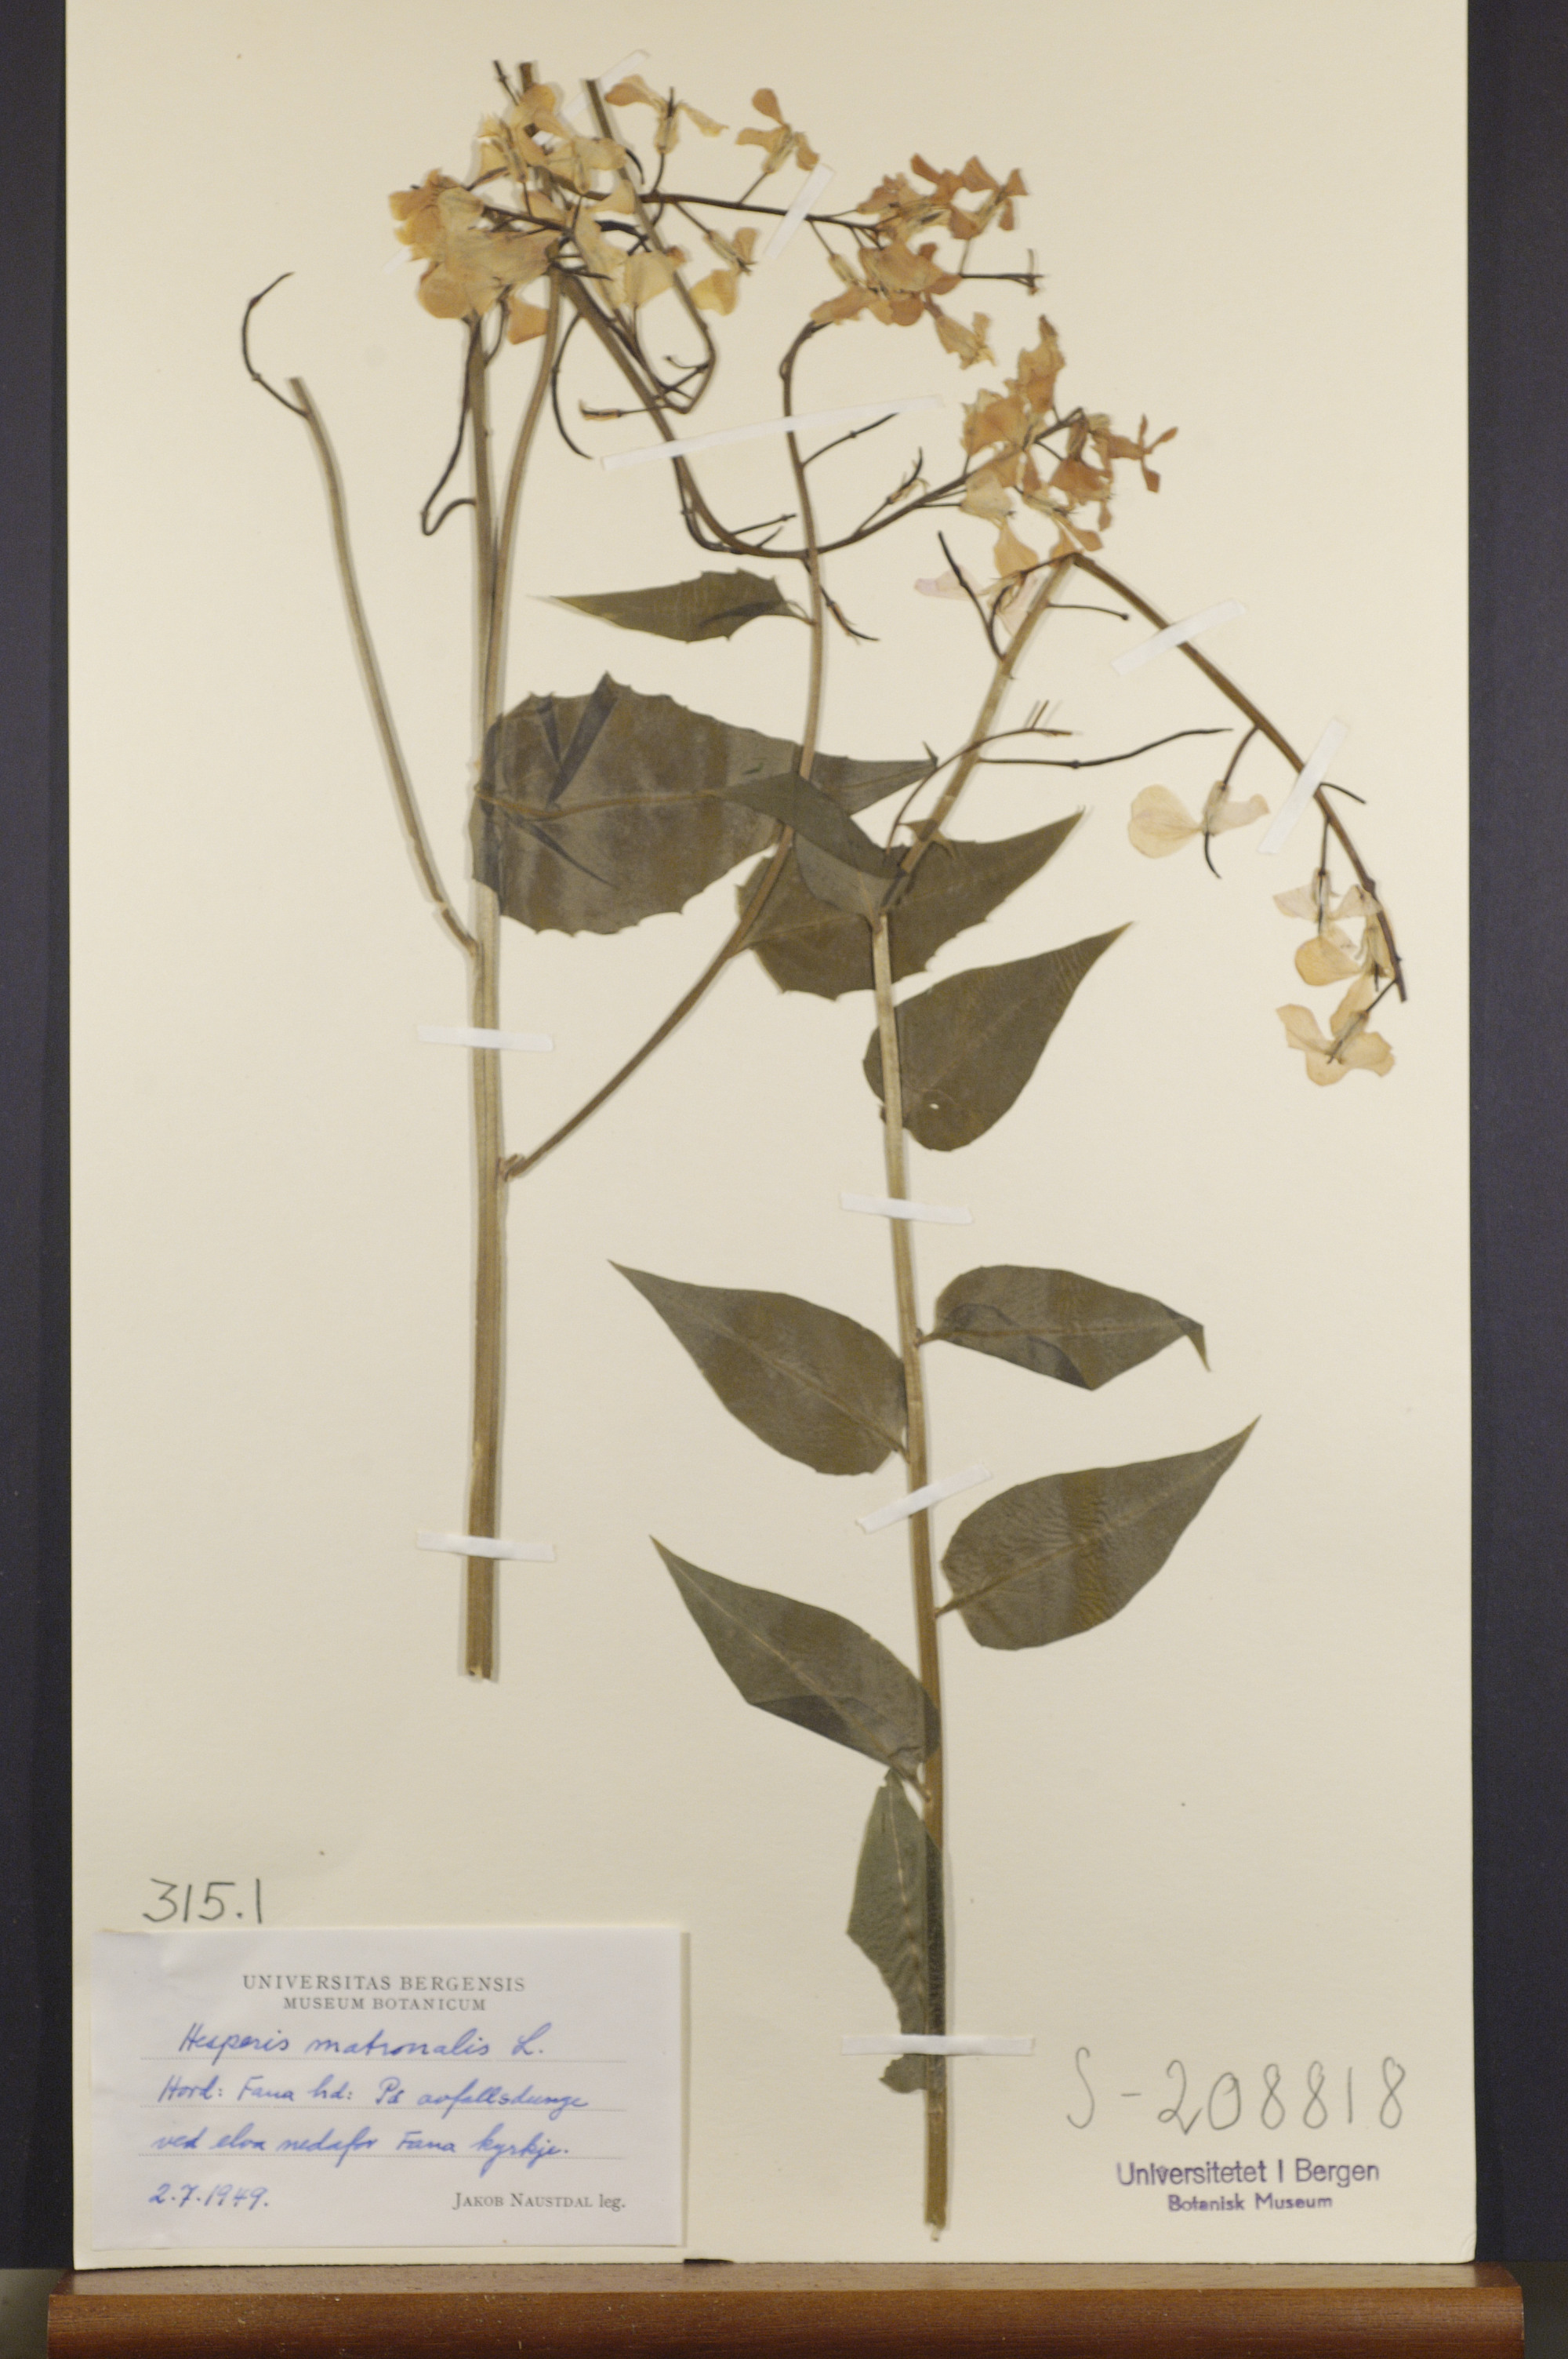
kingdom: Plantae
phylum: Tracheophyta
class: Magnoliopsida
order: Brassicales
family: Brassicaceae
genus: Hesperis
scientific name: Hesperis matronalis
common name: Dame's-violet
